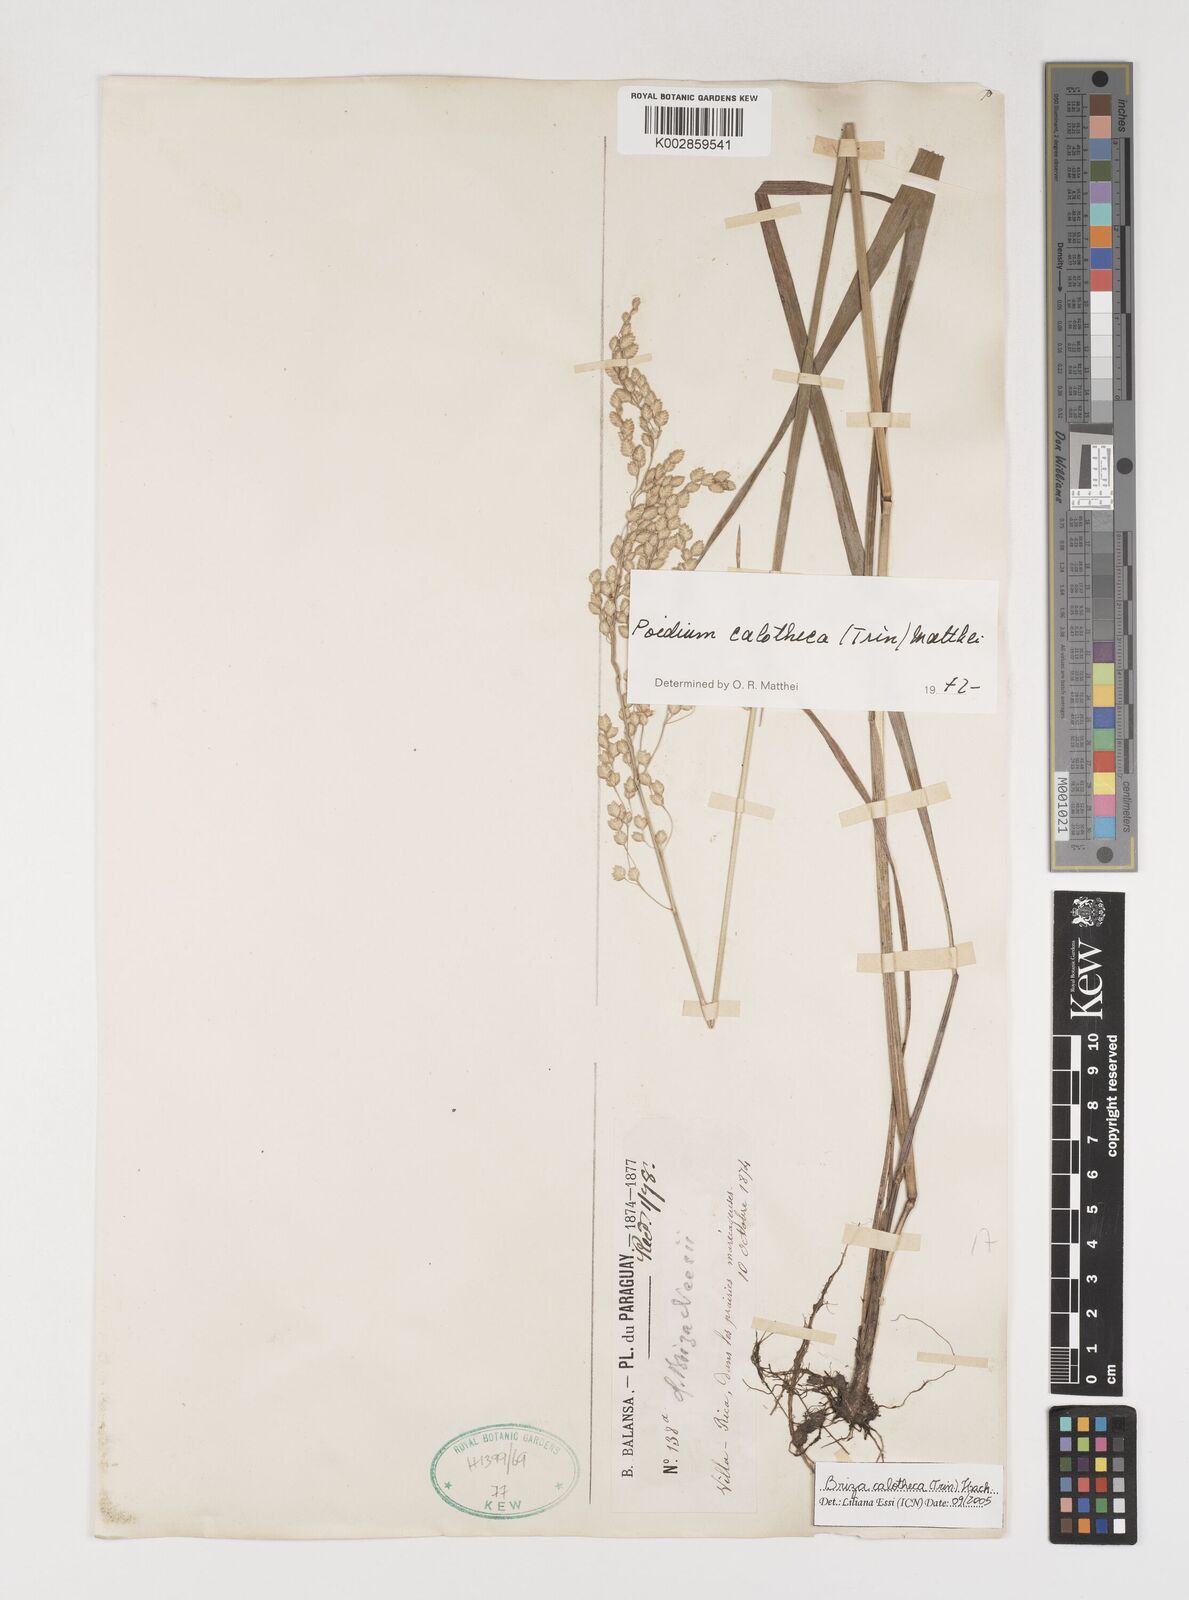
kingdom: Plantae
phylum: Tracheophyta
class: Liliopsida
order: Poales
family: Poaceae
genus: Poidium
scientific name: Poidium calotheca
